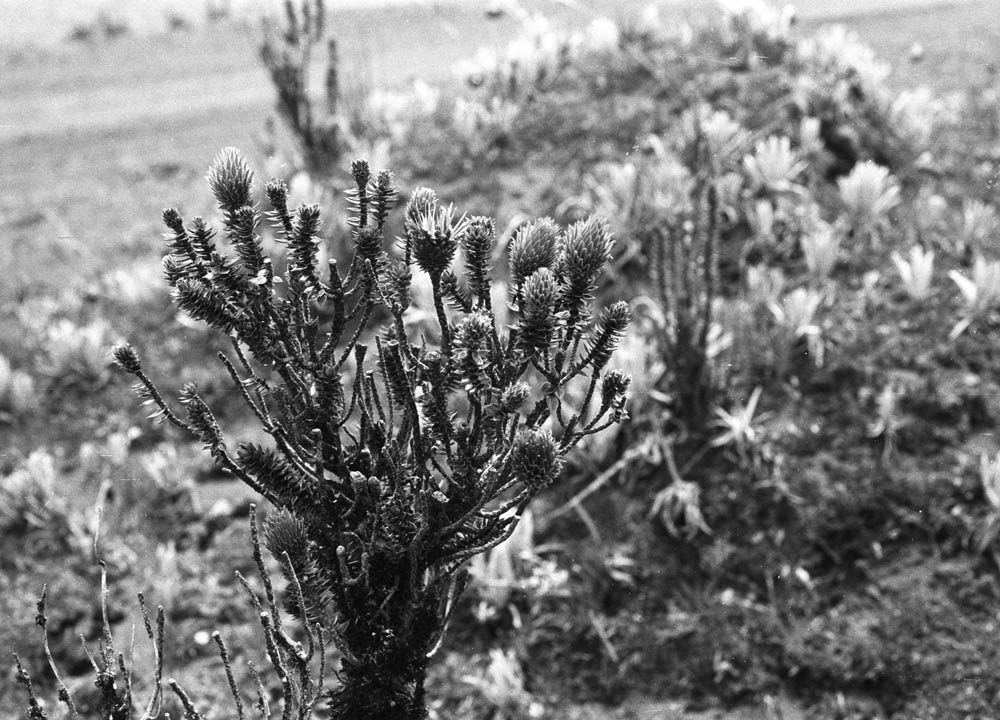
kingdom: Plantae
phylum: Tracheophyta
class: Magnoliopsida
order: Asterales
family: Asteraceae
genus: Chuquiraga
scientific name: Chuquiraga jussieui
